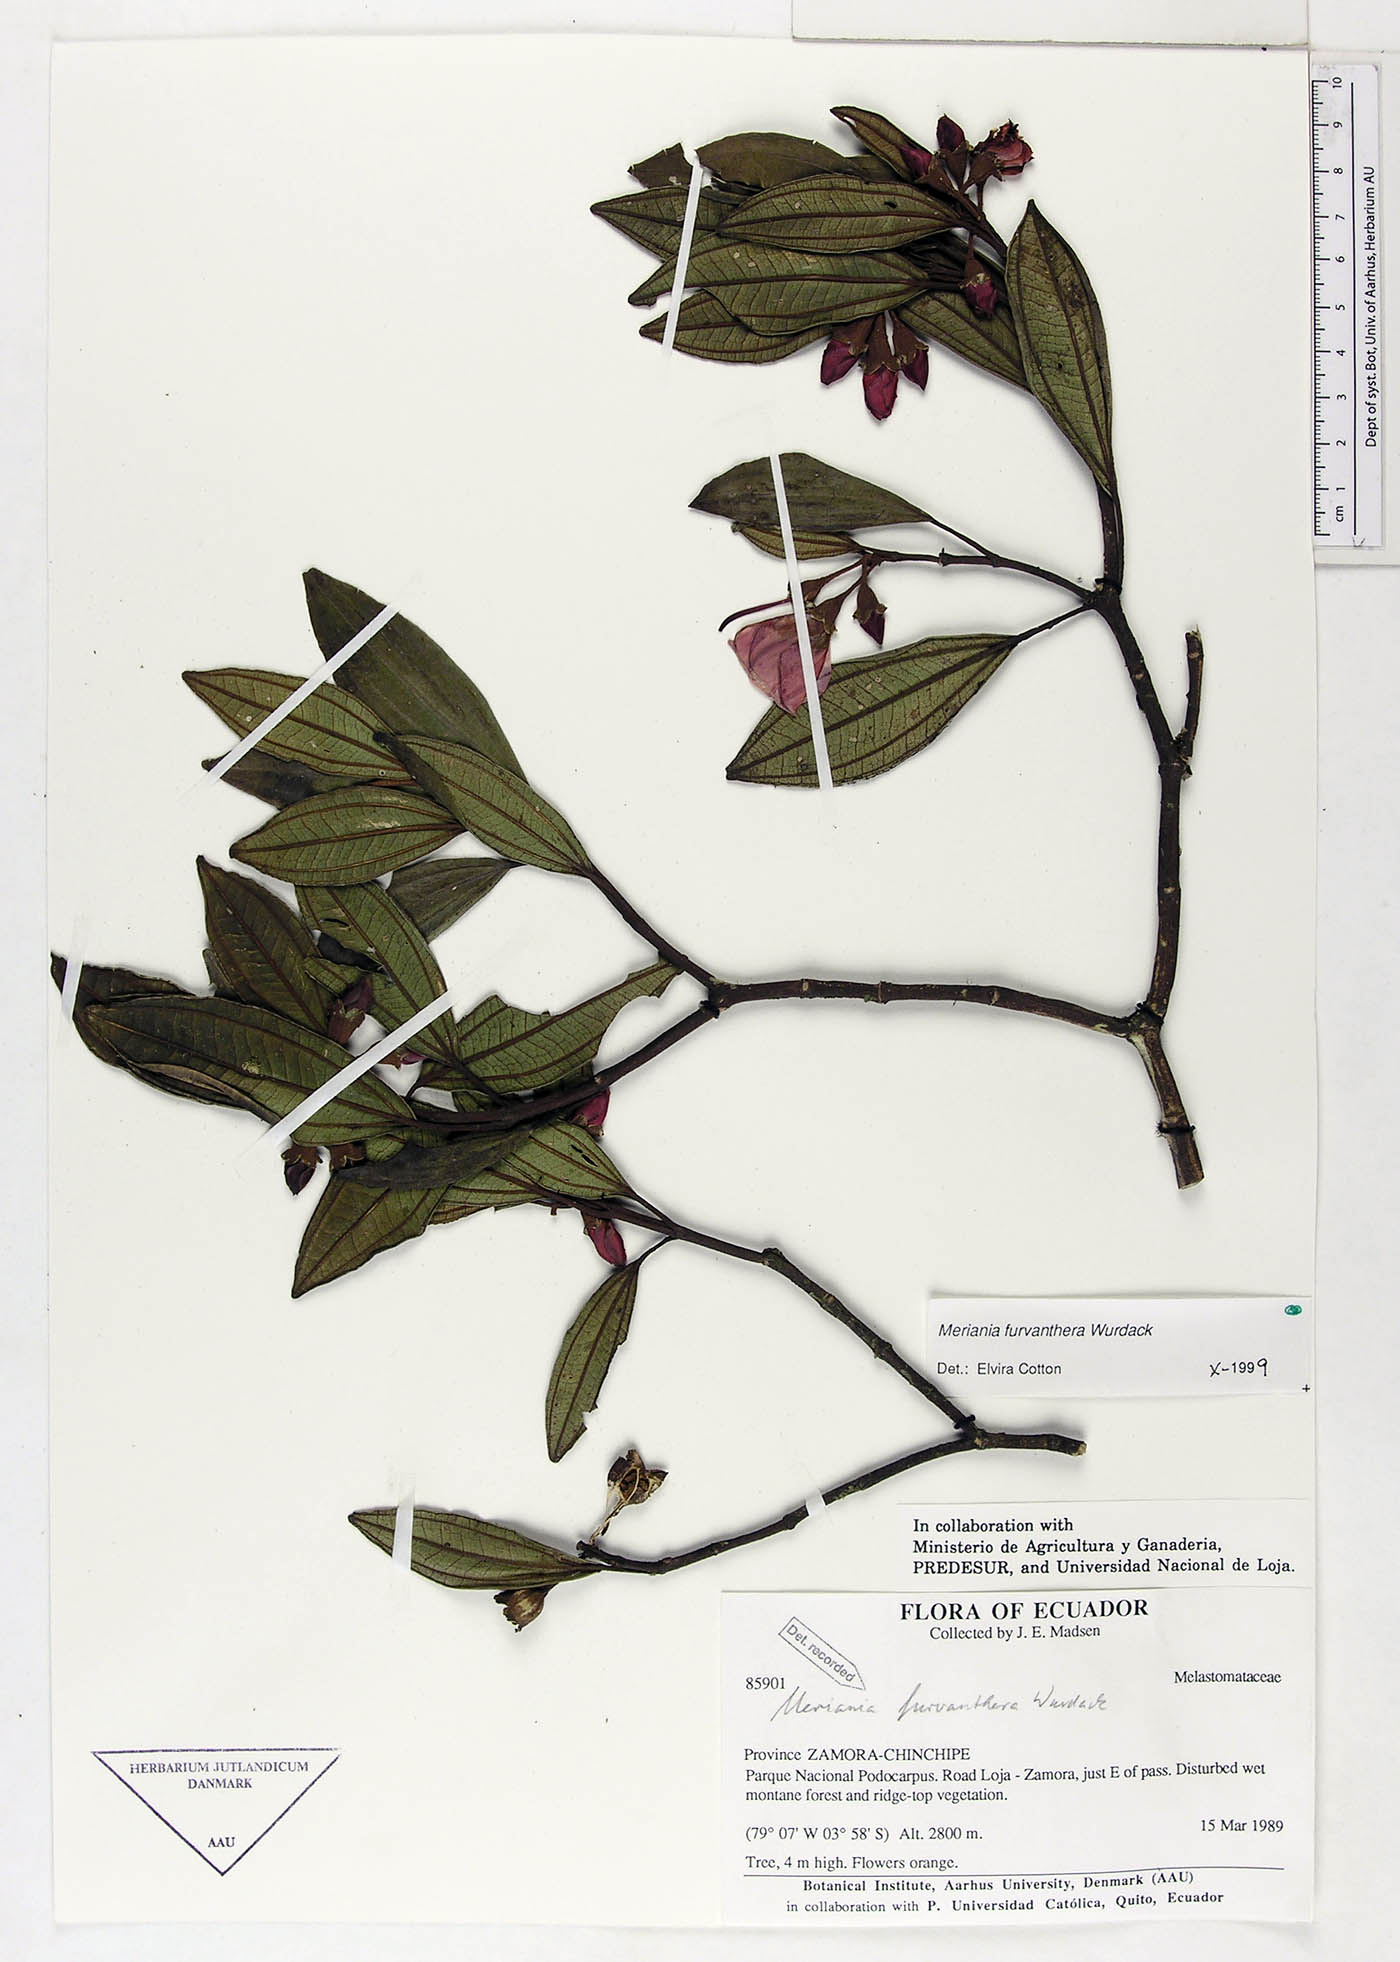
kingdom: Plantae
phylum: Tracheophyta
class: Magnoliopsida
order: Myrtales
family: Melastomataceae
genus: Meriania
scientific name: Meriania furvanthera
